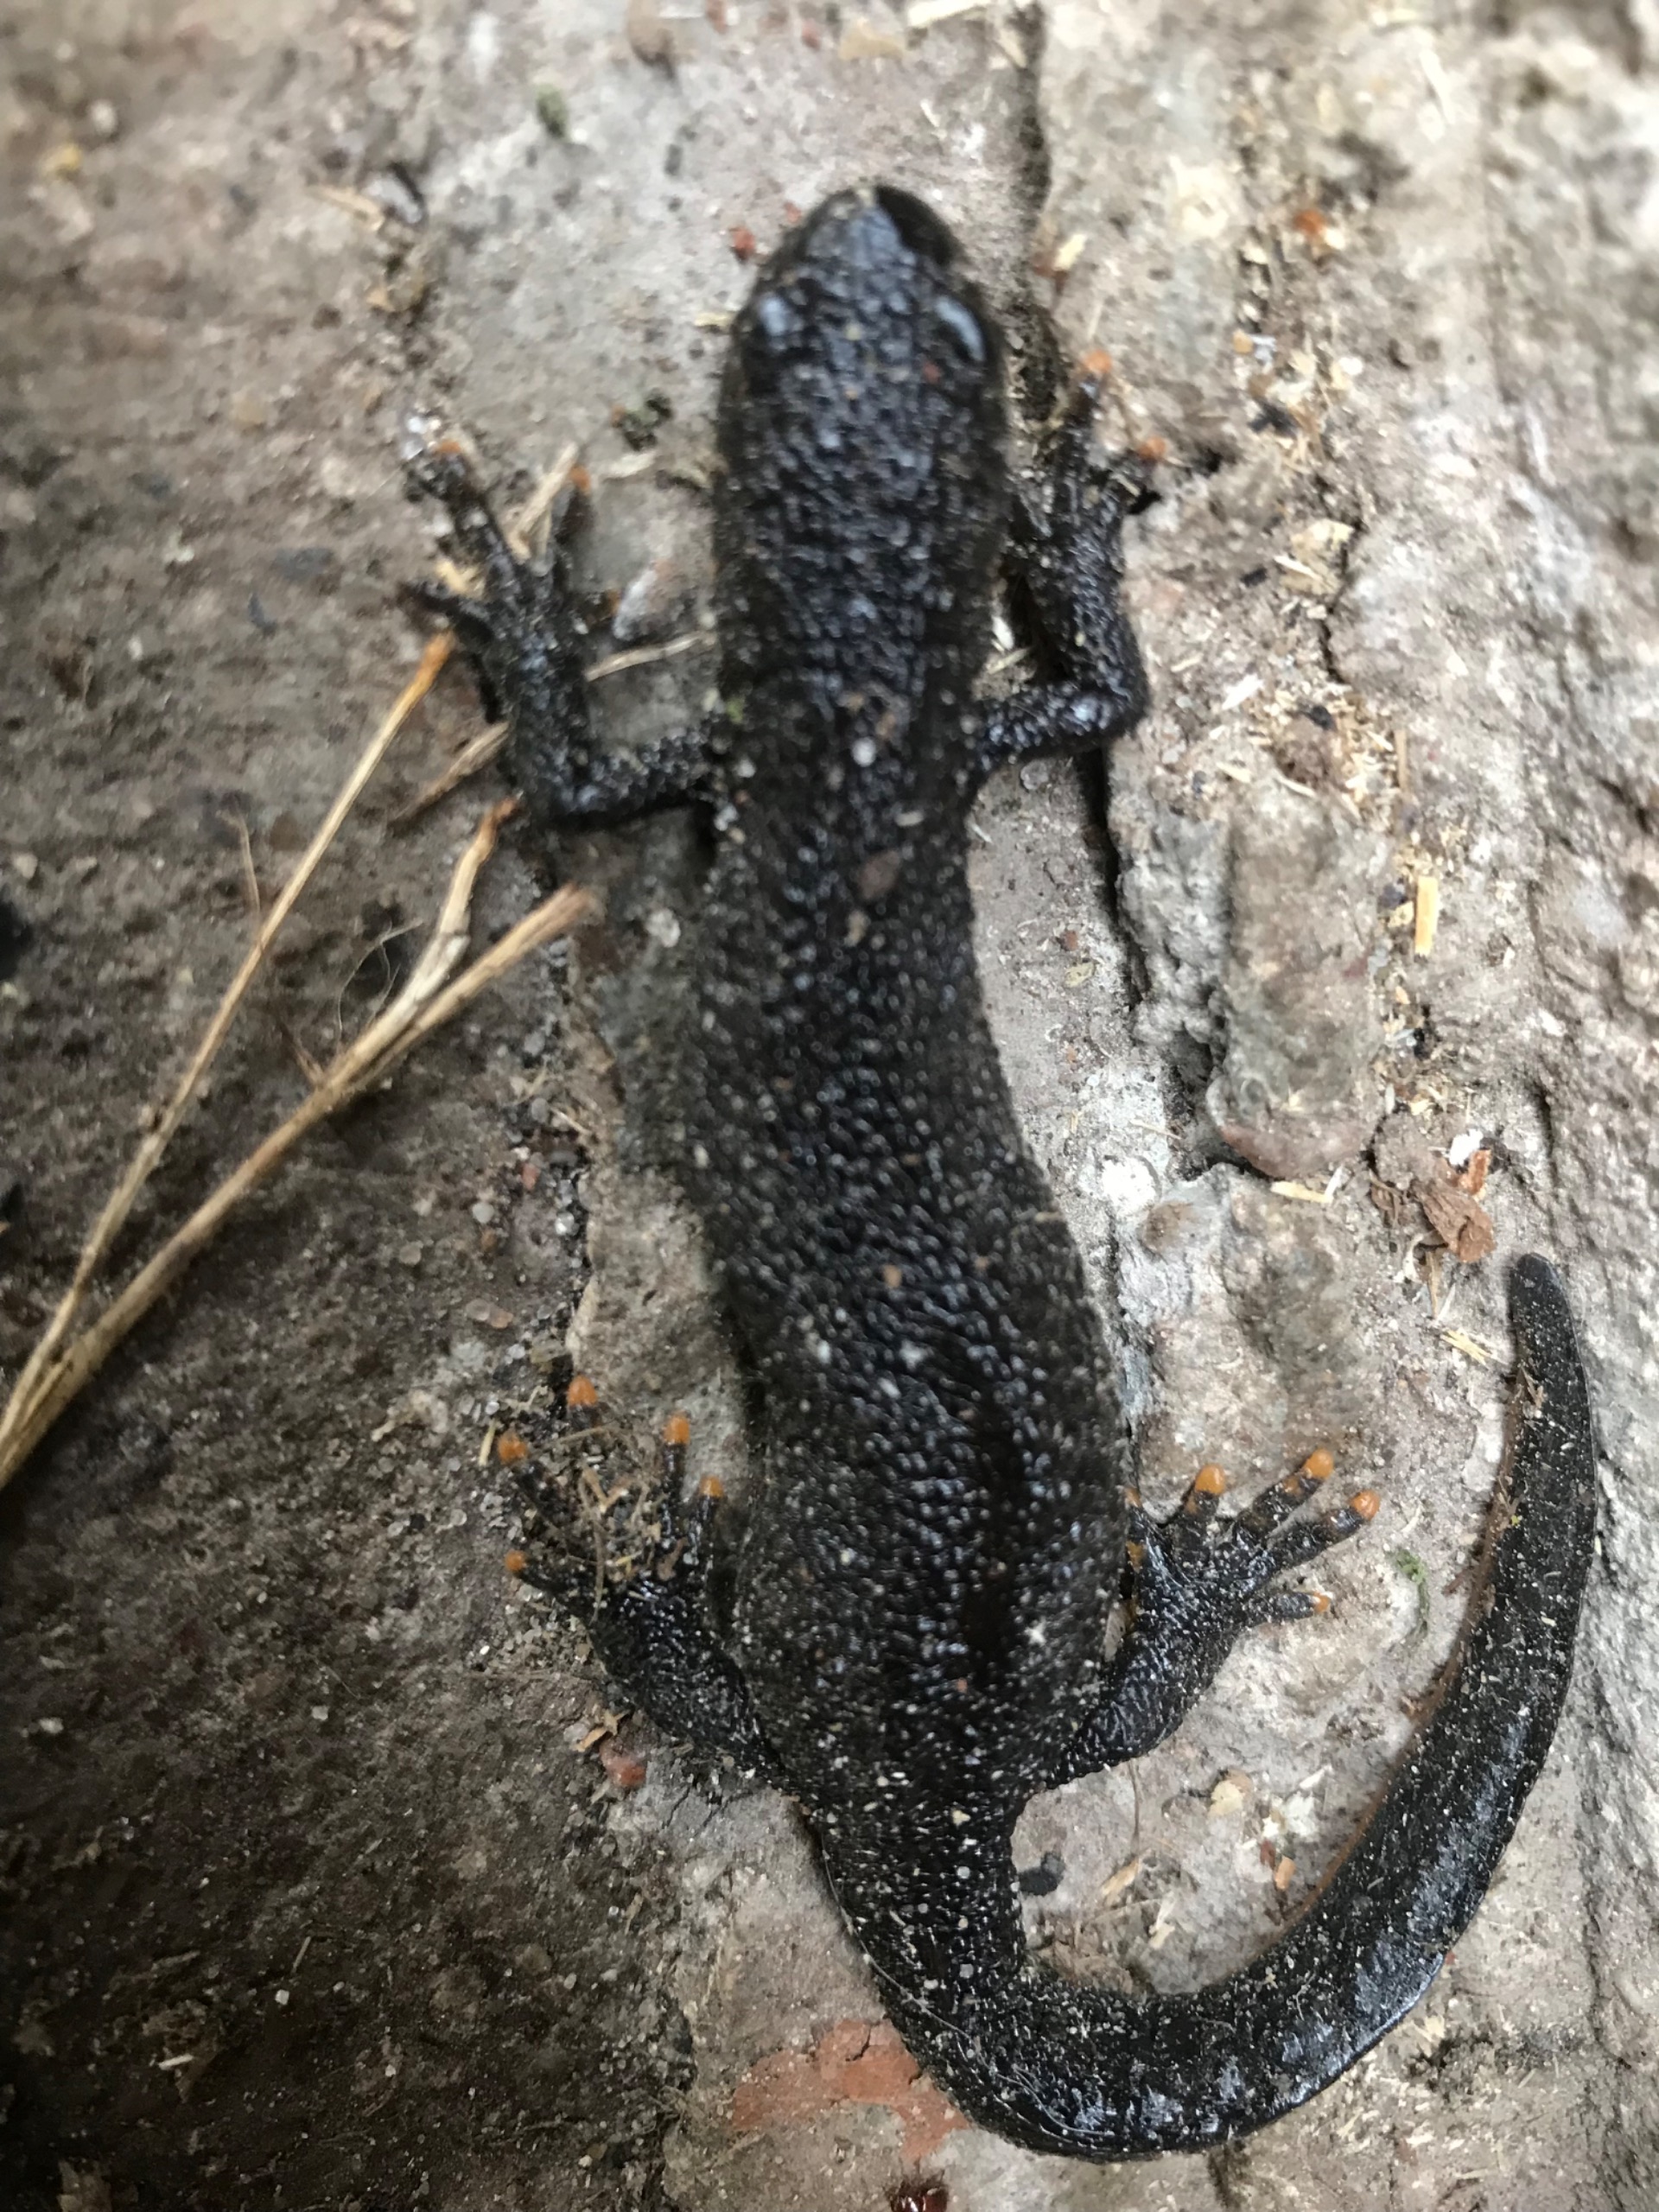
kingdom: Animalia
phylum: Chordata
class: Amphibia
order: Caudata
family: Salamandridae
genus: Triturus
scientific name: Triturus cristatus
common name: Stor vandsalamander
